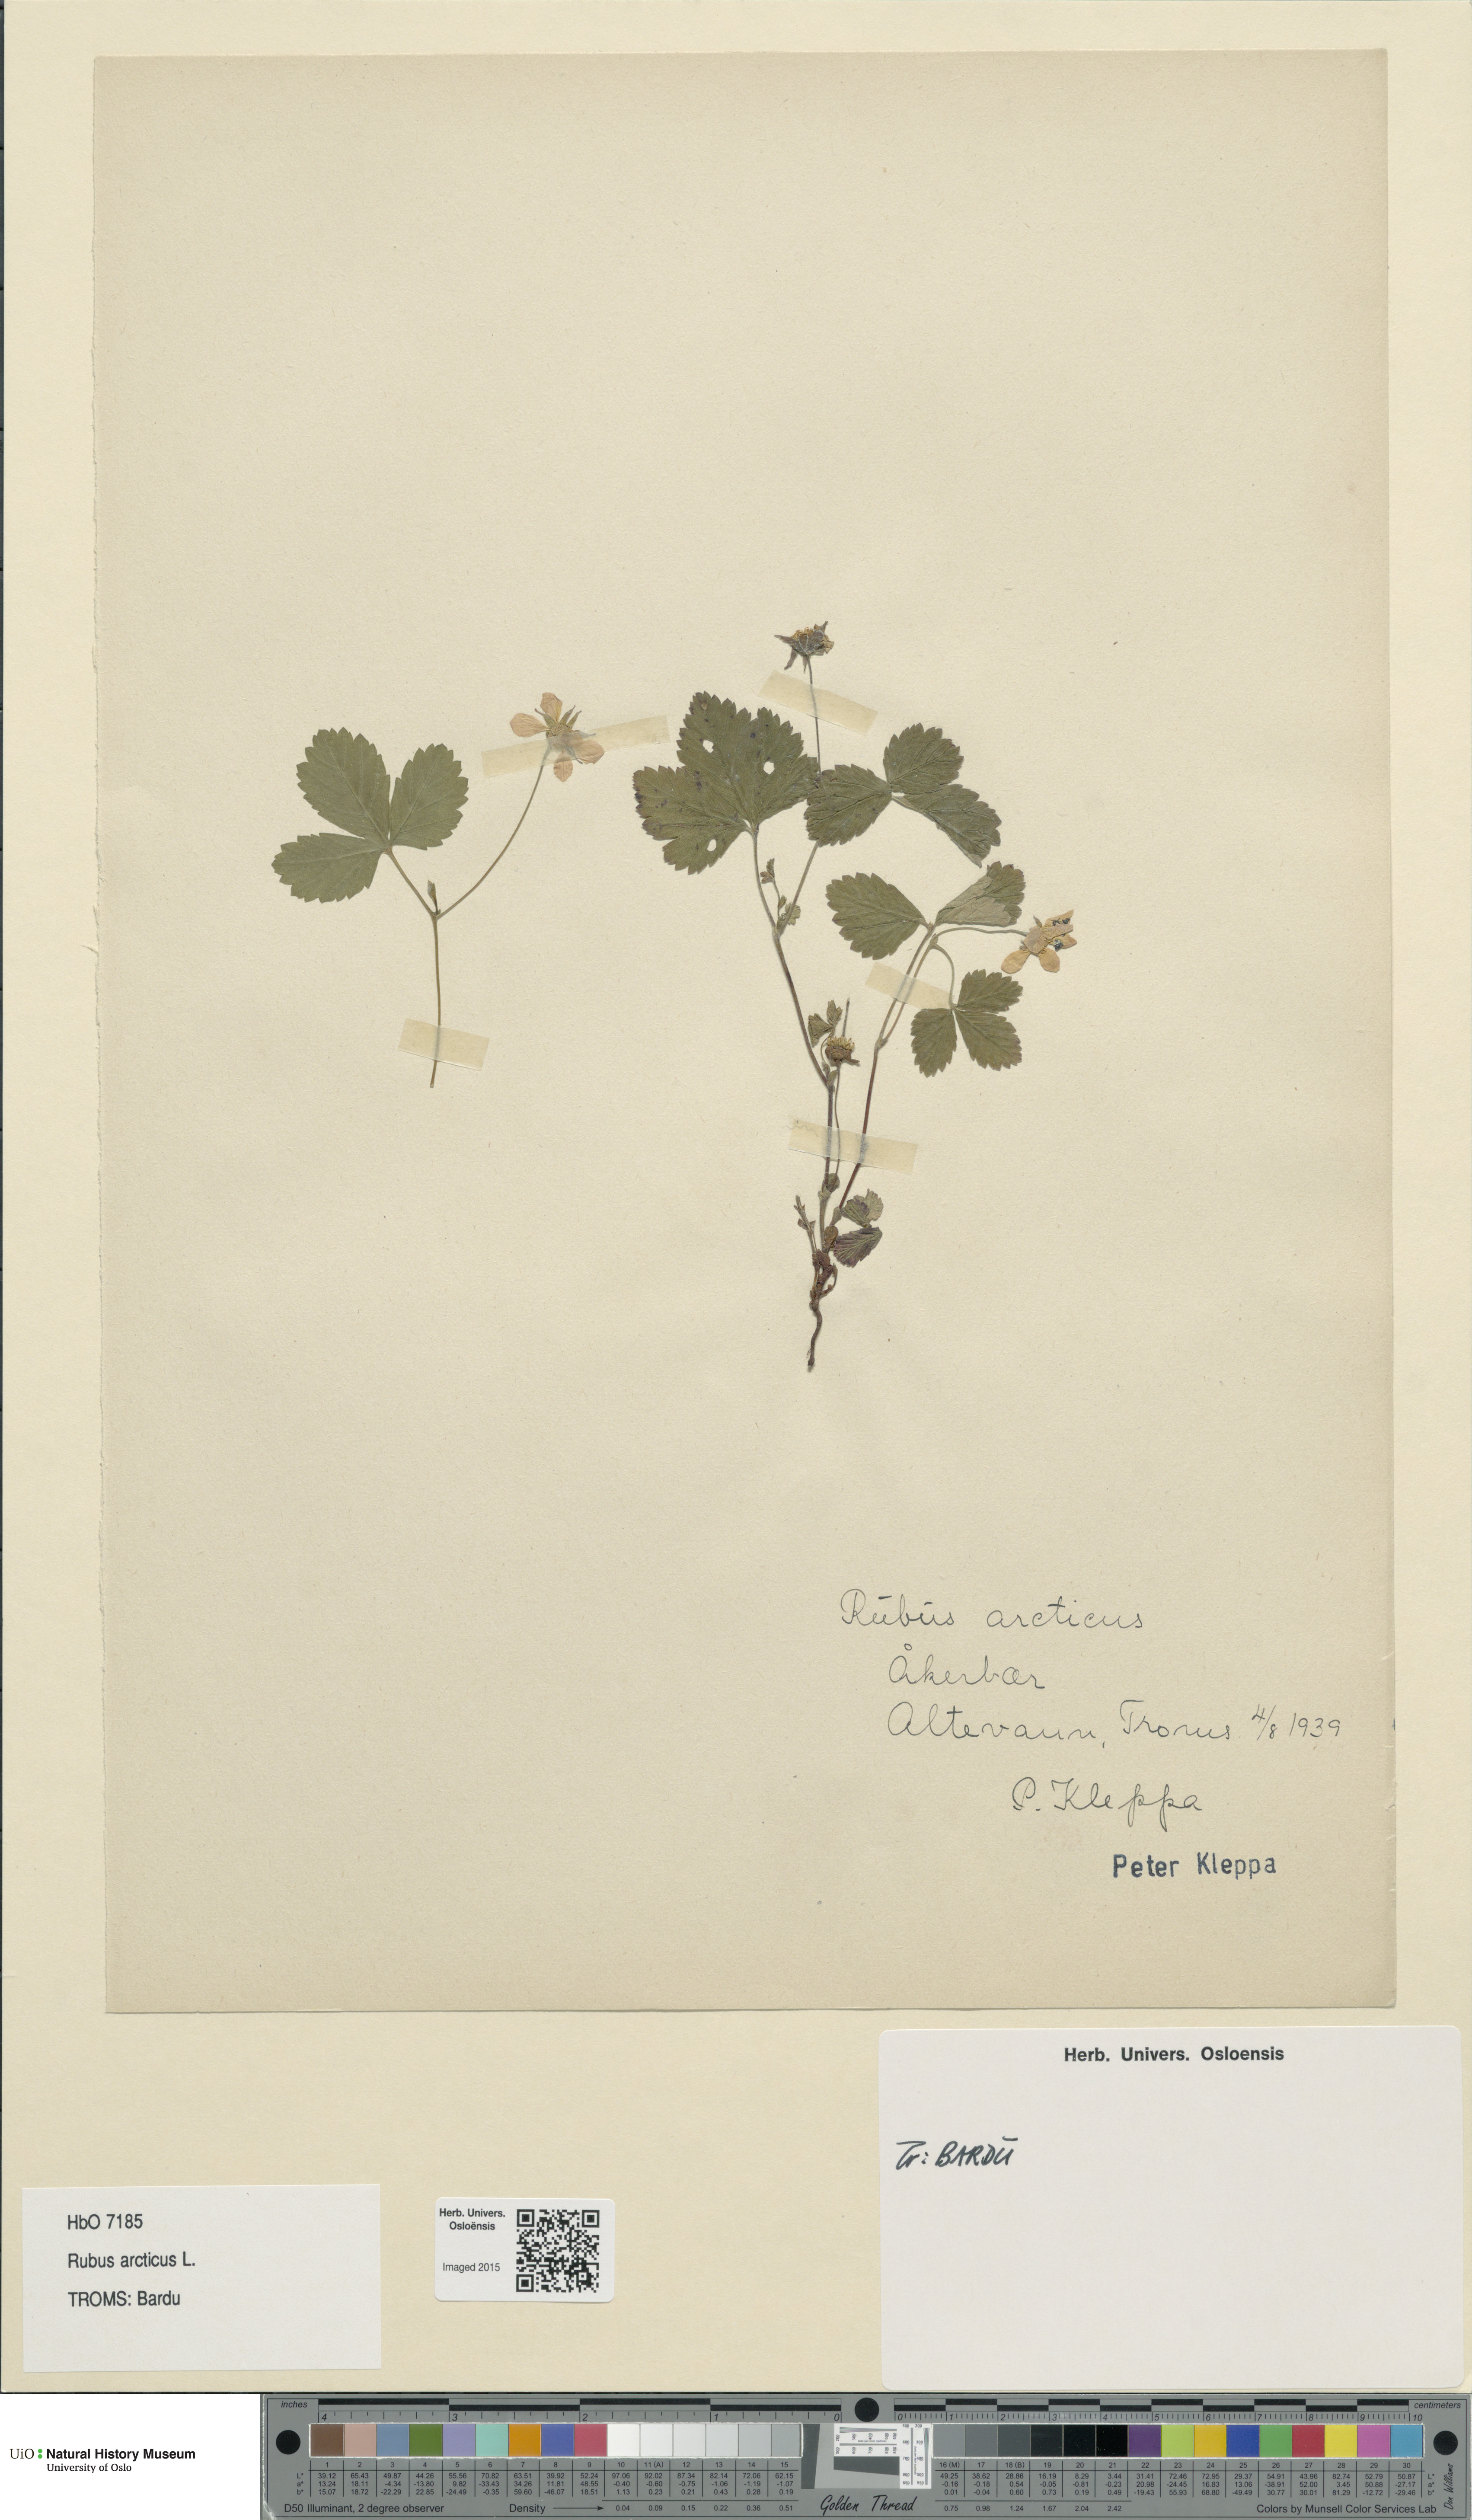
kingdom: Plantae
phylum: Tracheophyta
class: Magnoliopsida
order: Rosales
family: Rosaceae
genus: Rubus
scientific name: Rubus arcticus
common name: Arctic bramble
